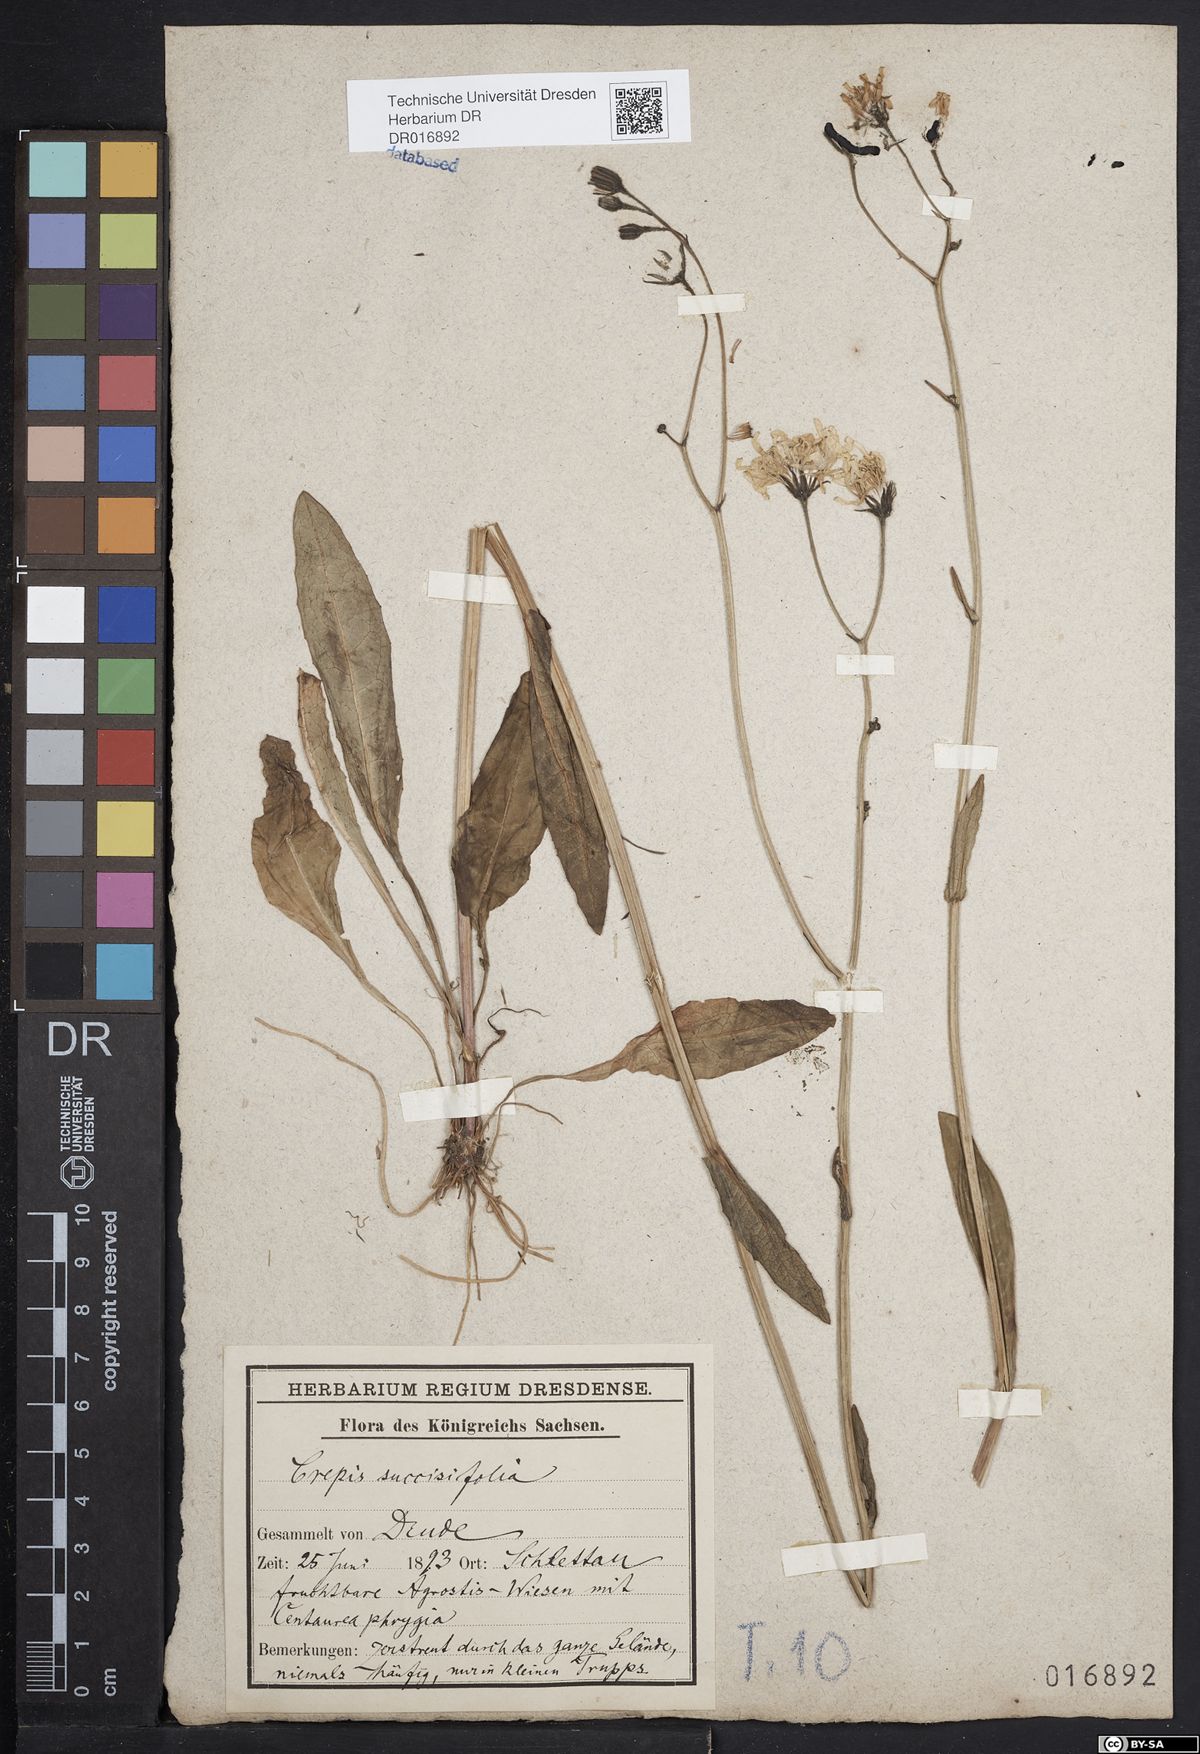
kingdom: Plantae
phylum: Tracheophyta
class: Magnoliopsida
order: Asterales
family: Asteraceae
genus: Crepis
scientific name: Crepis mollis
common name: Northern hawk's-beard
